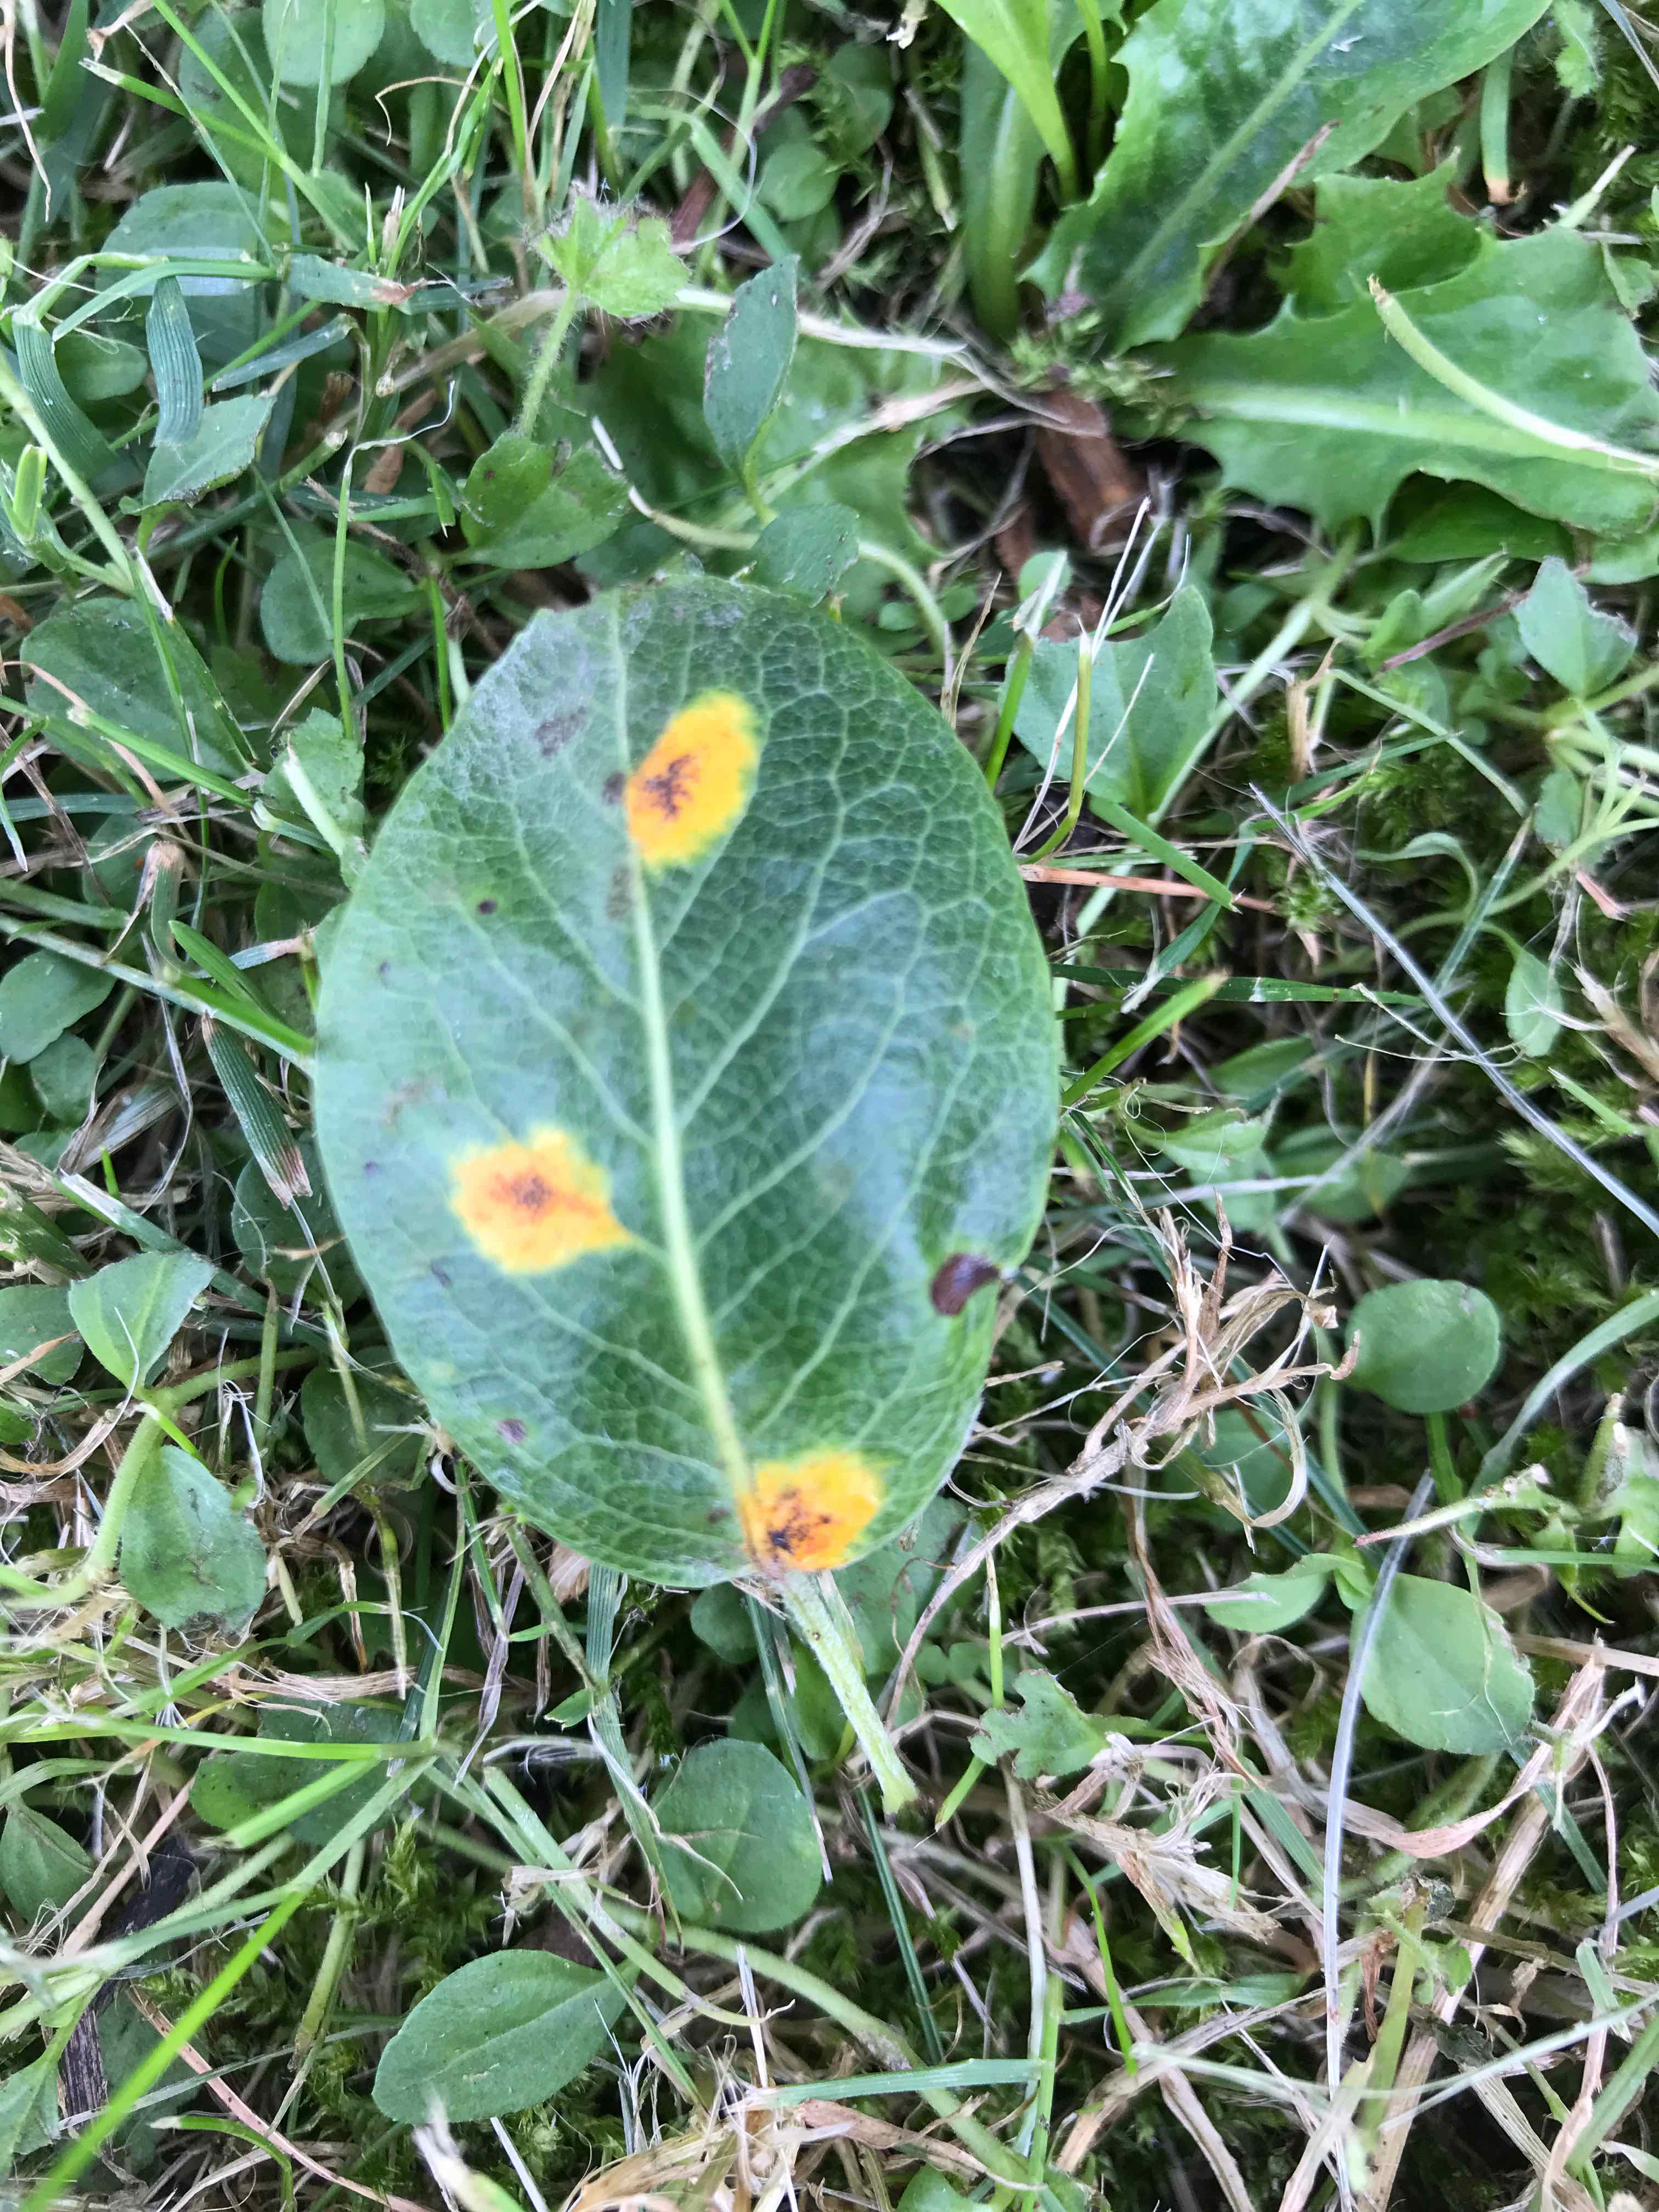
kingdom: Fungi
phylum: Basidiomycota
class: Pucciniomycetes
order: Pucciniales
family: Gymnosporangiaceae
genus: Gymnosporangium
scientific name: Gymnosporangium sabinae
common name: pæregitter-bævrerust
